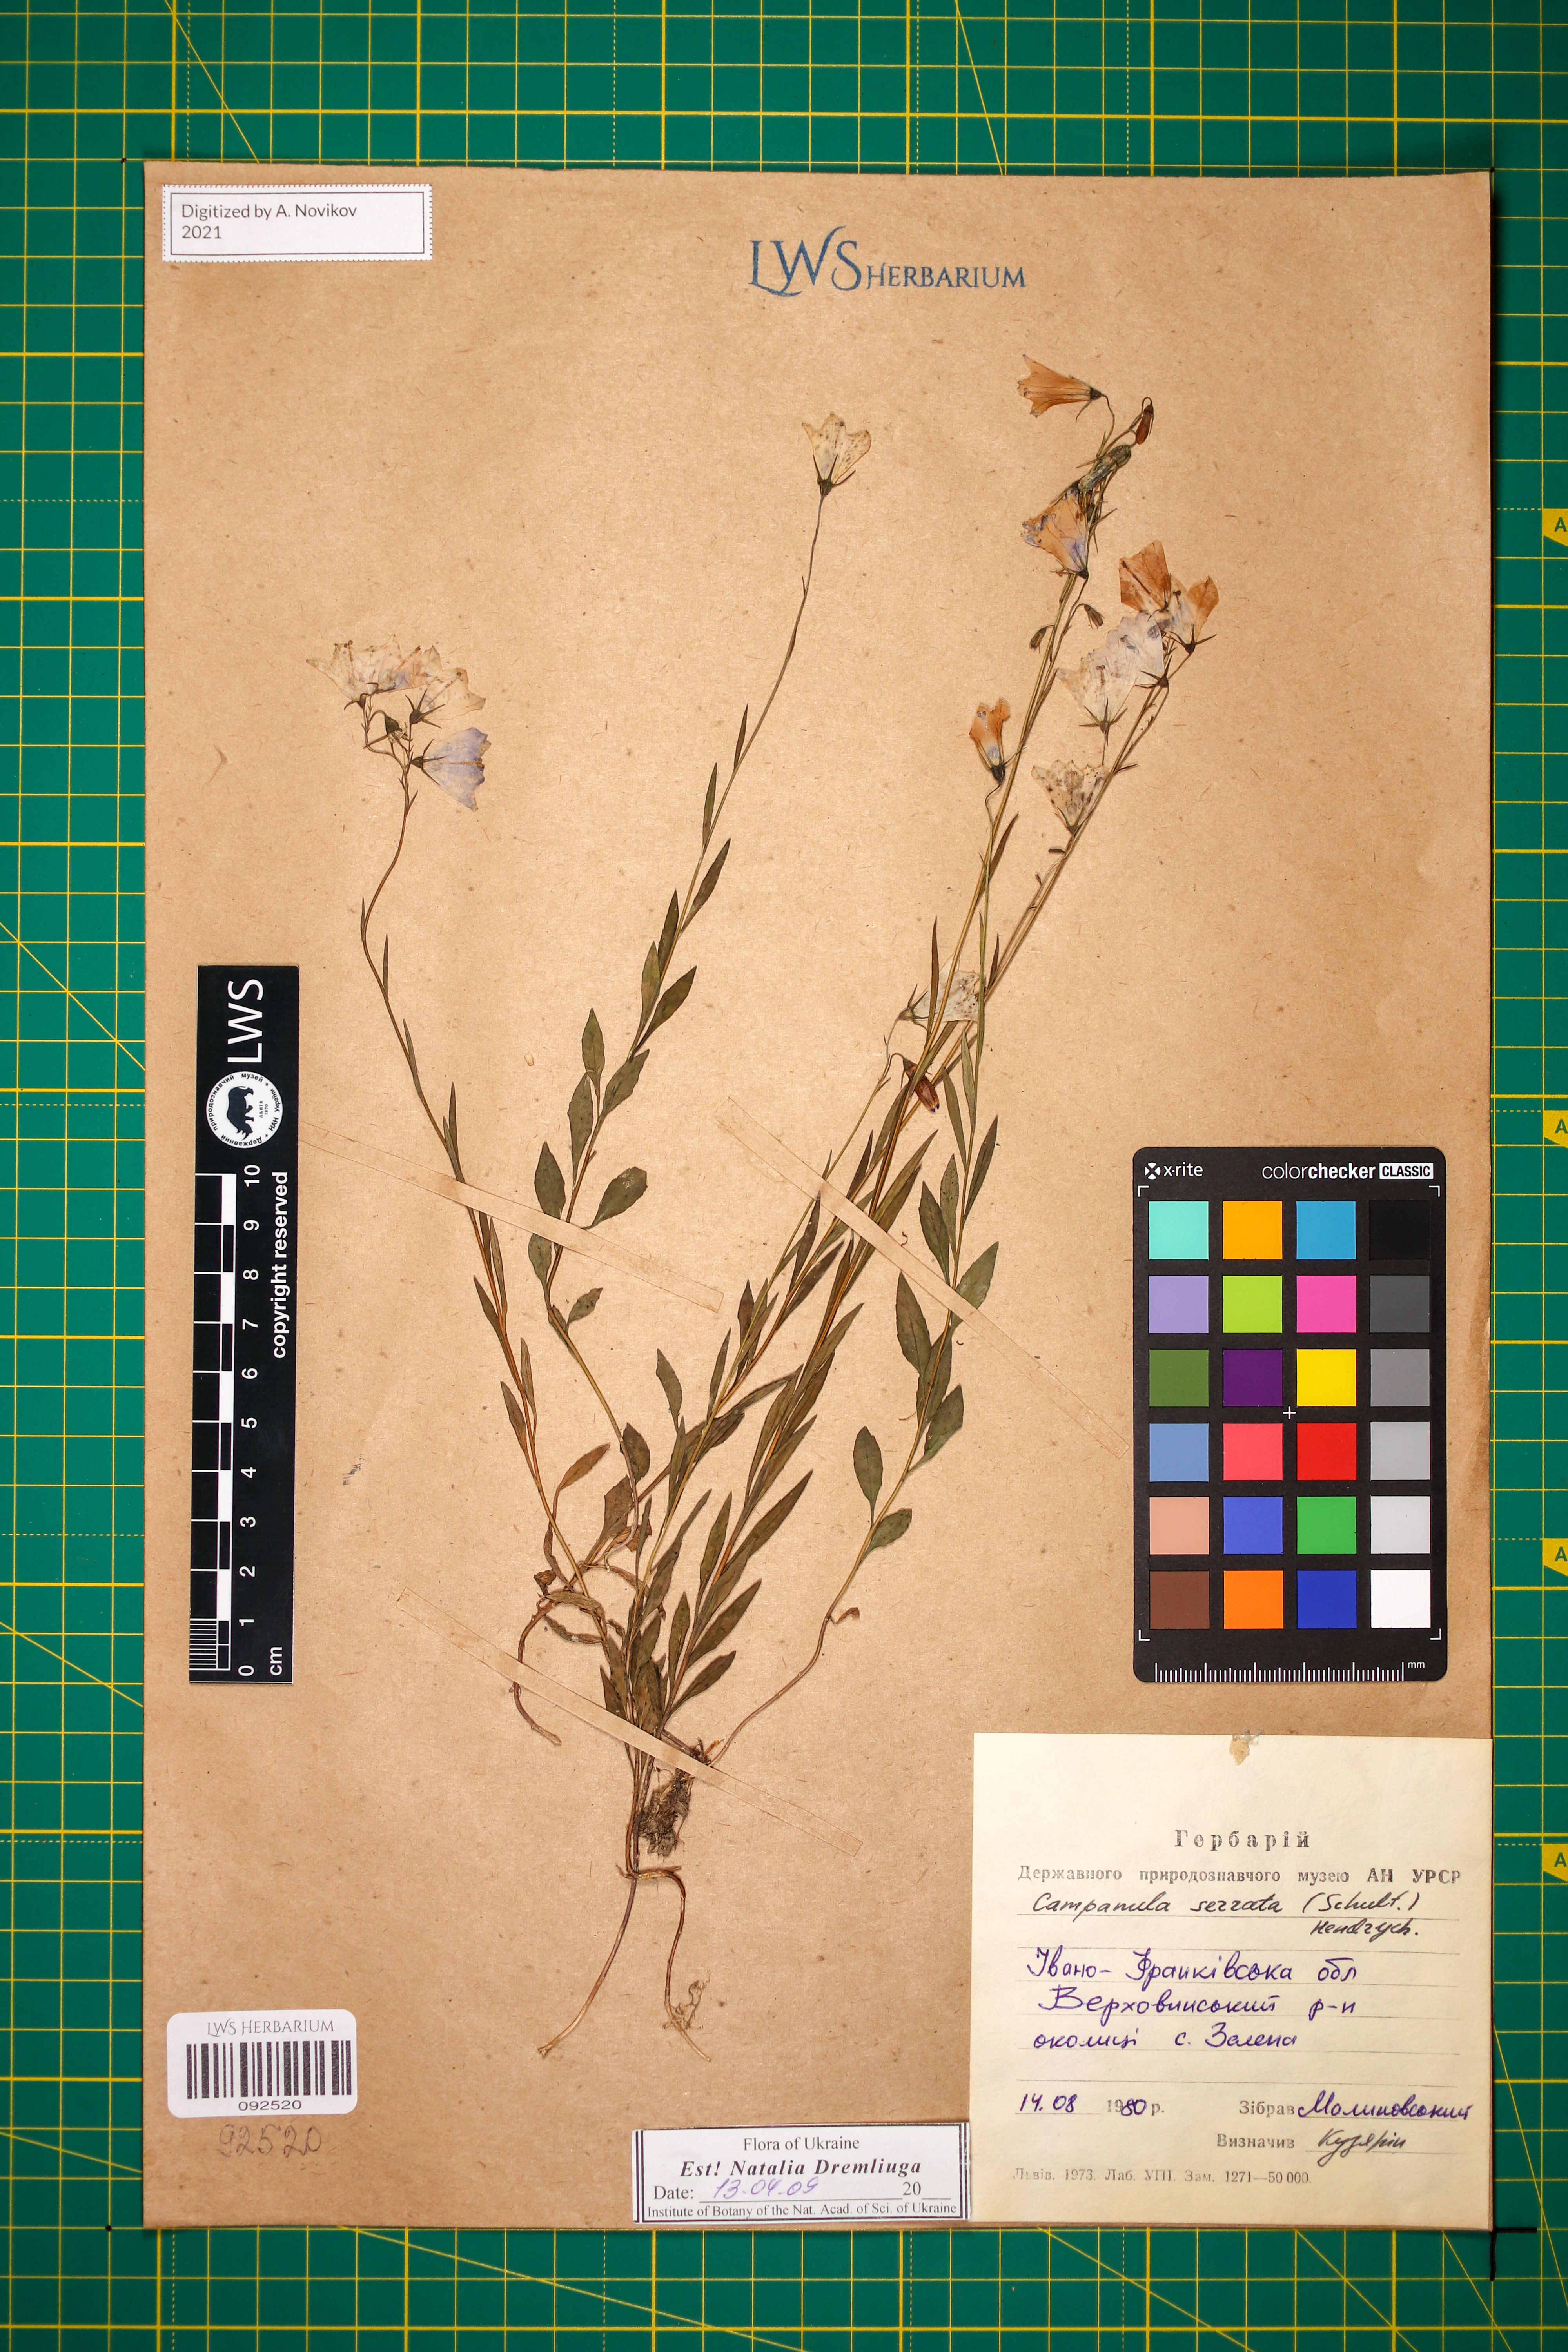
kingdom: Plantae
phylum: Tracheophyta
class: Magnoliopsida
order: Asterales
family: Campanulaceae
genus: Campanula
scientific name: Campanula serrata
